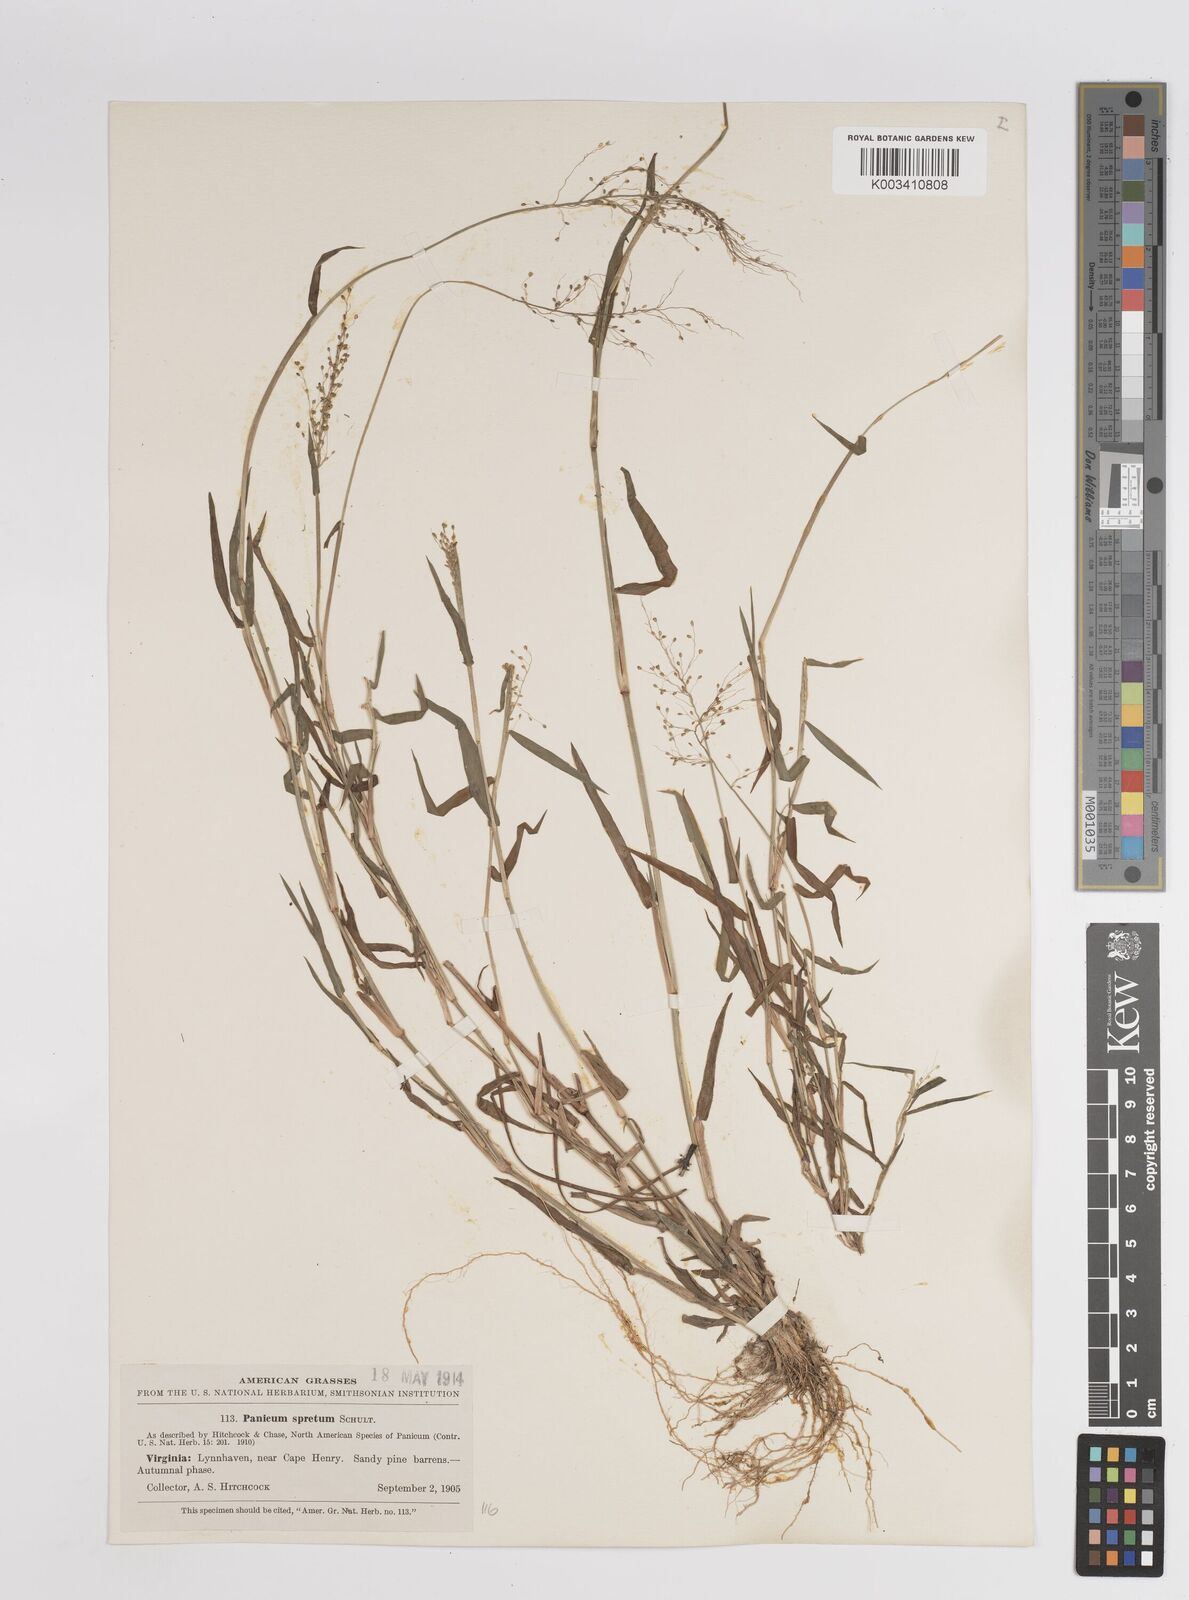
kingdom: Plantae
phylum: Tracheophyta
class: Liliopsida
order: Poales
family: Poaceae
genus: Dichanthelium
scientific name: Dichanthelium acuminatum
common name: Hairy panic grass
